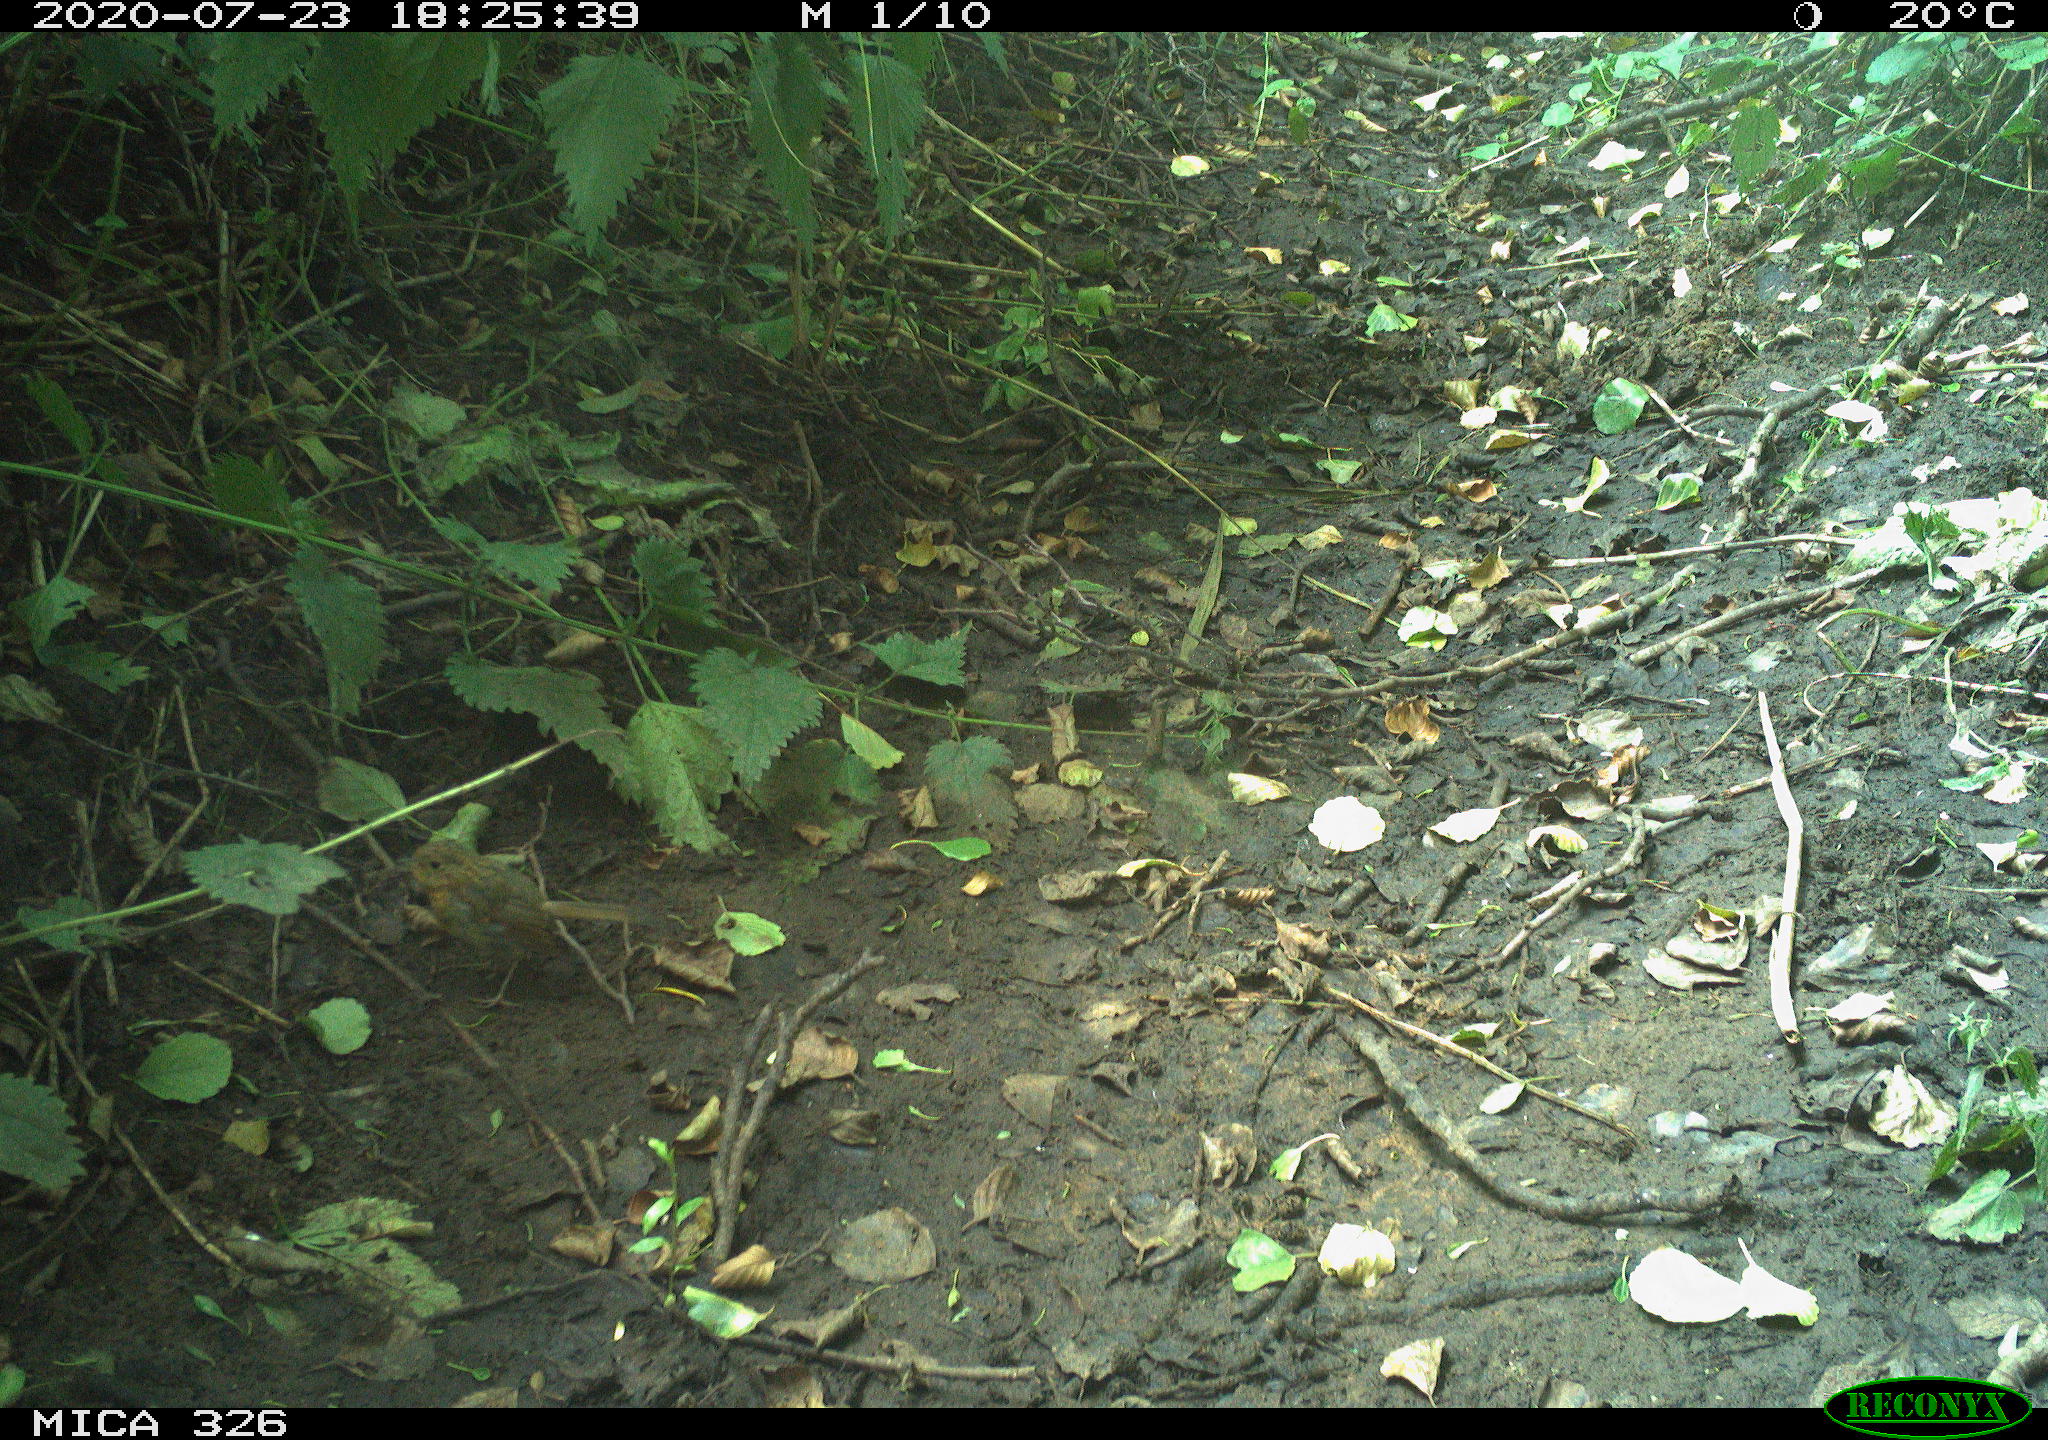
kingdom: Animalia
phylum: Chordata
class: Aves
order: Passeriformes
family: Muscicapidae
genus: Erithacus
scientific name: Erithacus rubecula
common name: European robin
